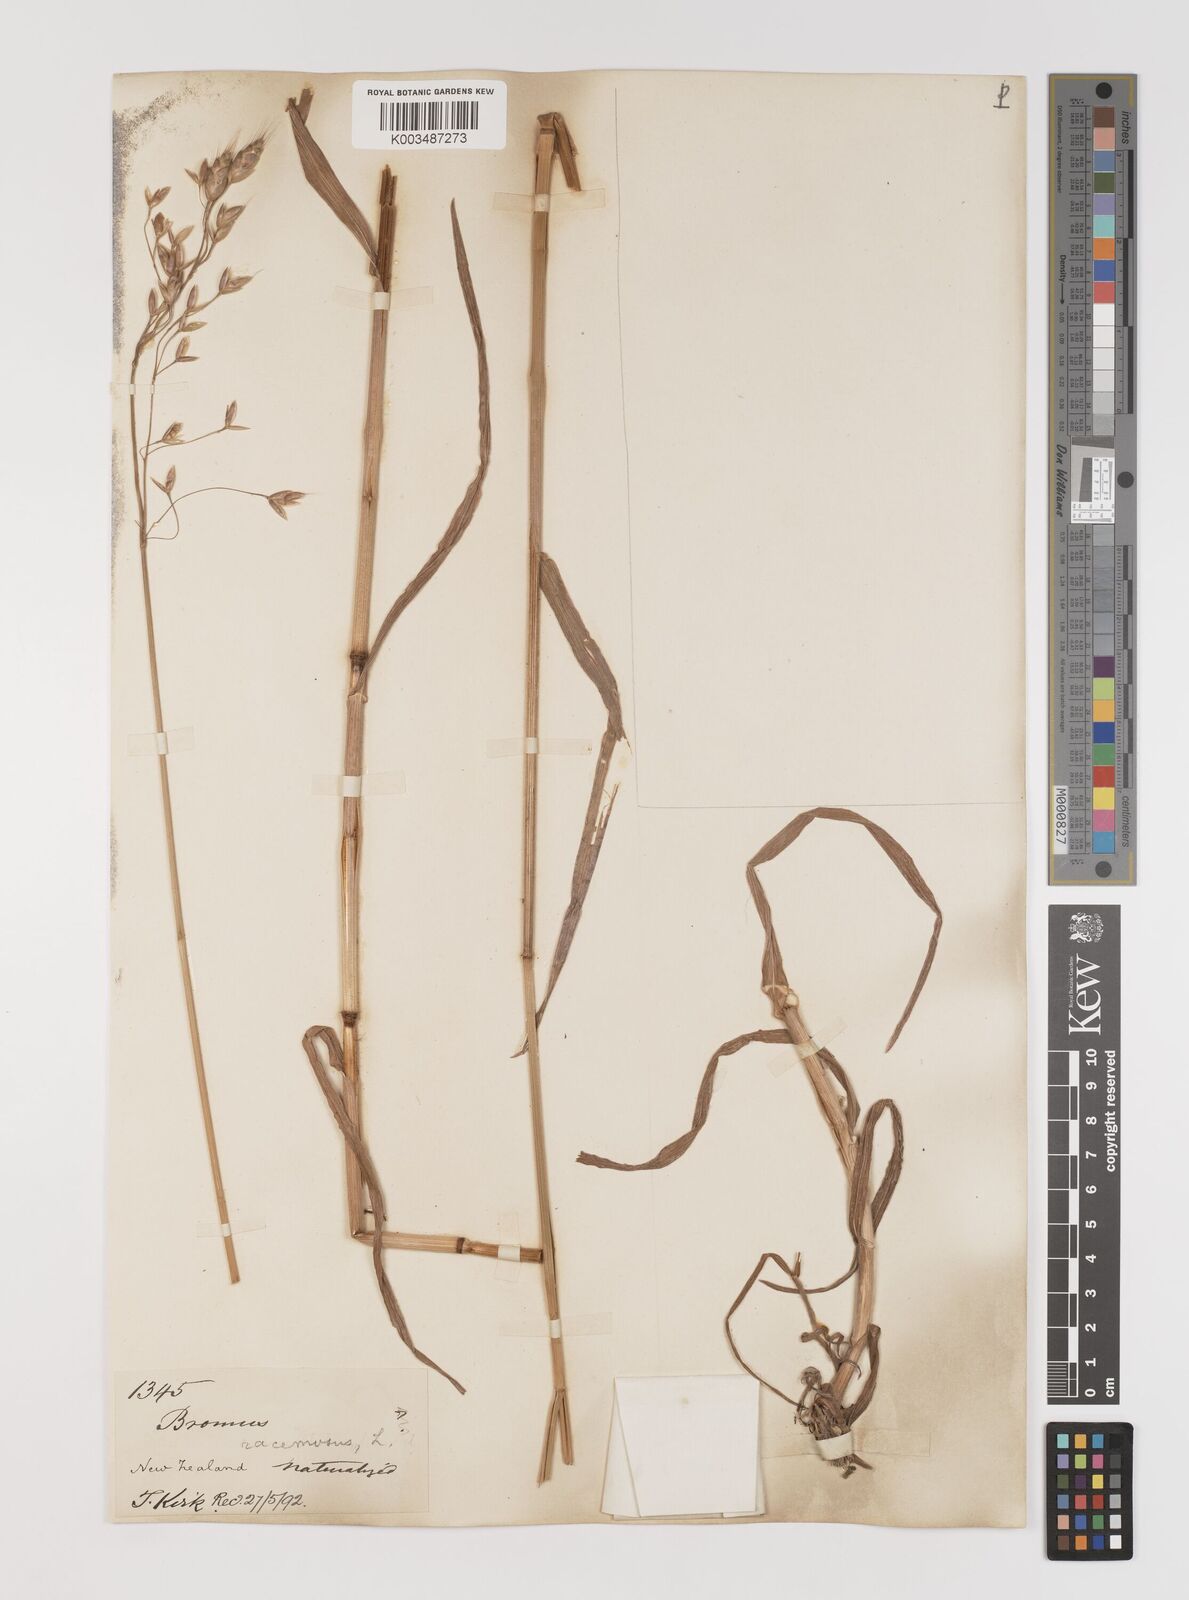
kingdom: Plantae
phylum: Tracheophyta
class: Liliopsida
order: Poales
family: Poaceae
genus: Bromus
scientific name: Bromus secalinus
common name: Rye brome
